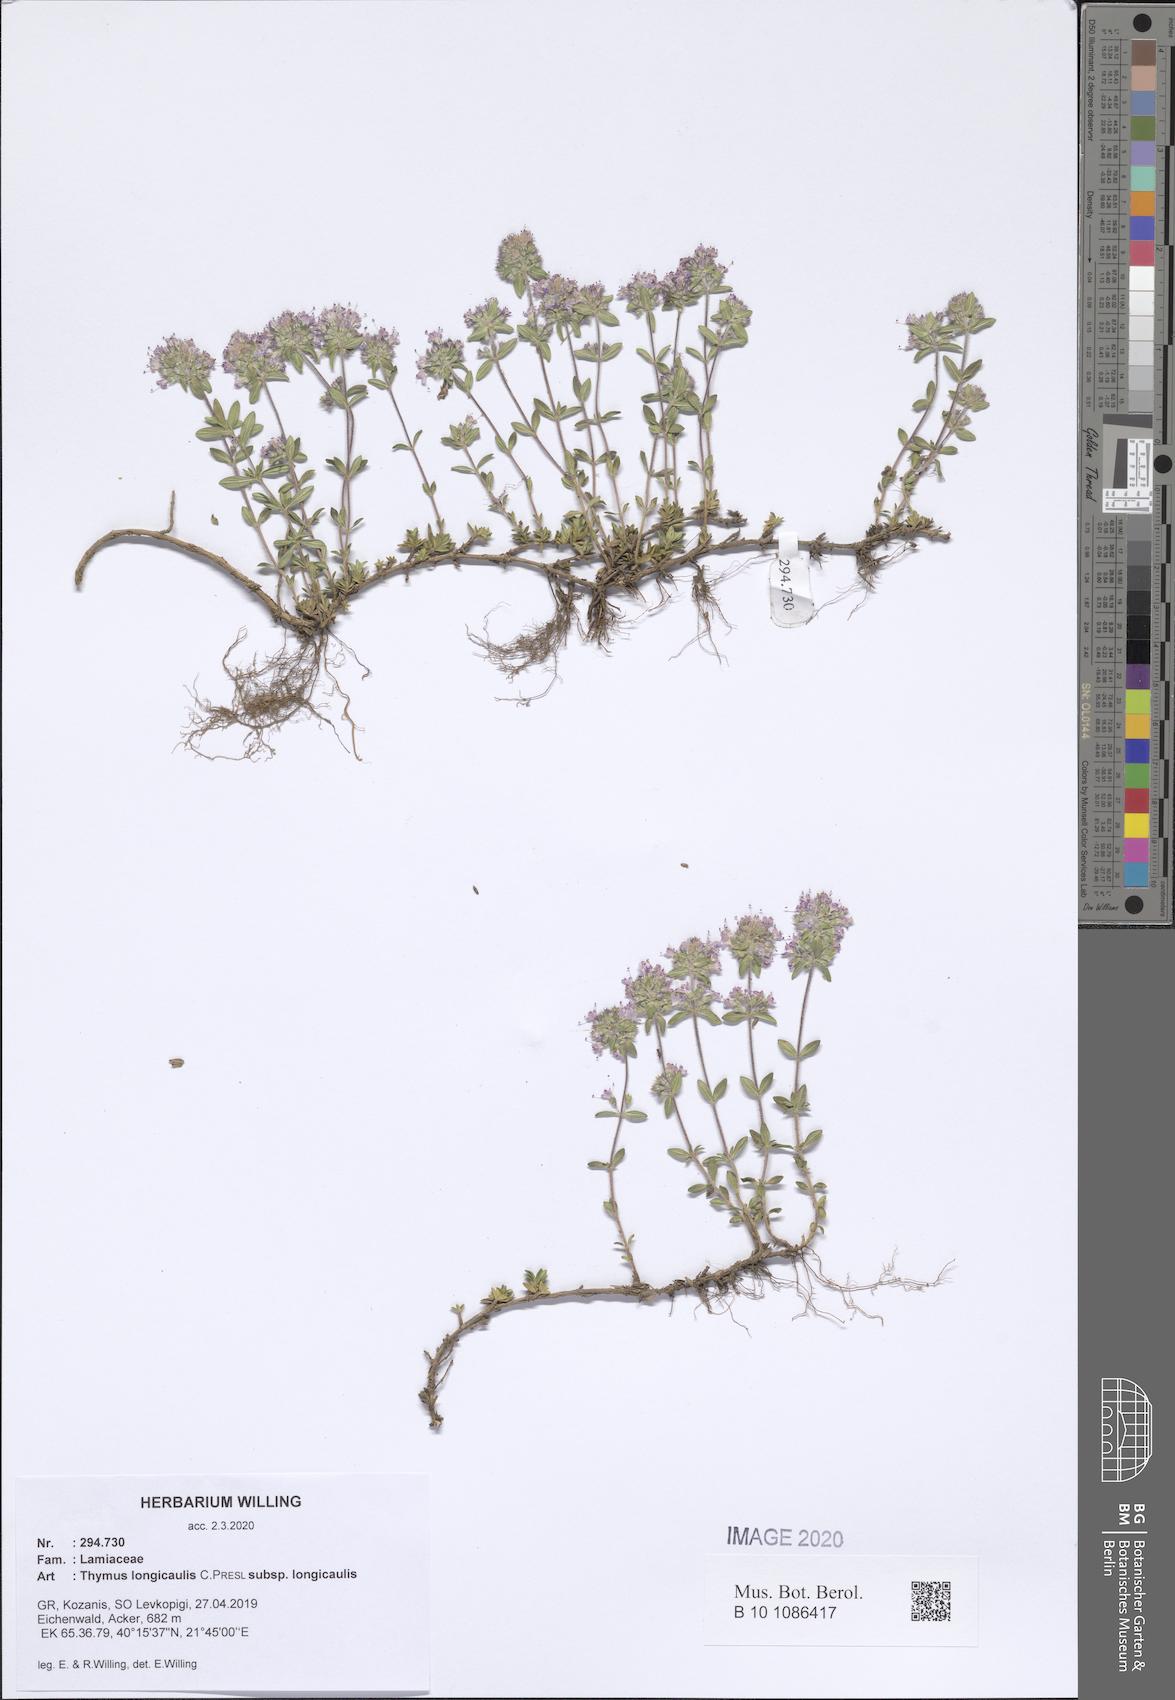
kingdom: Plantae
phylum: Tracheophyta
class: Magnoliopsida
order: Lamiales
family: Lamiaceae
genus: Thymus
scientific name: Thymus longicaulis
